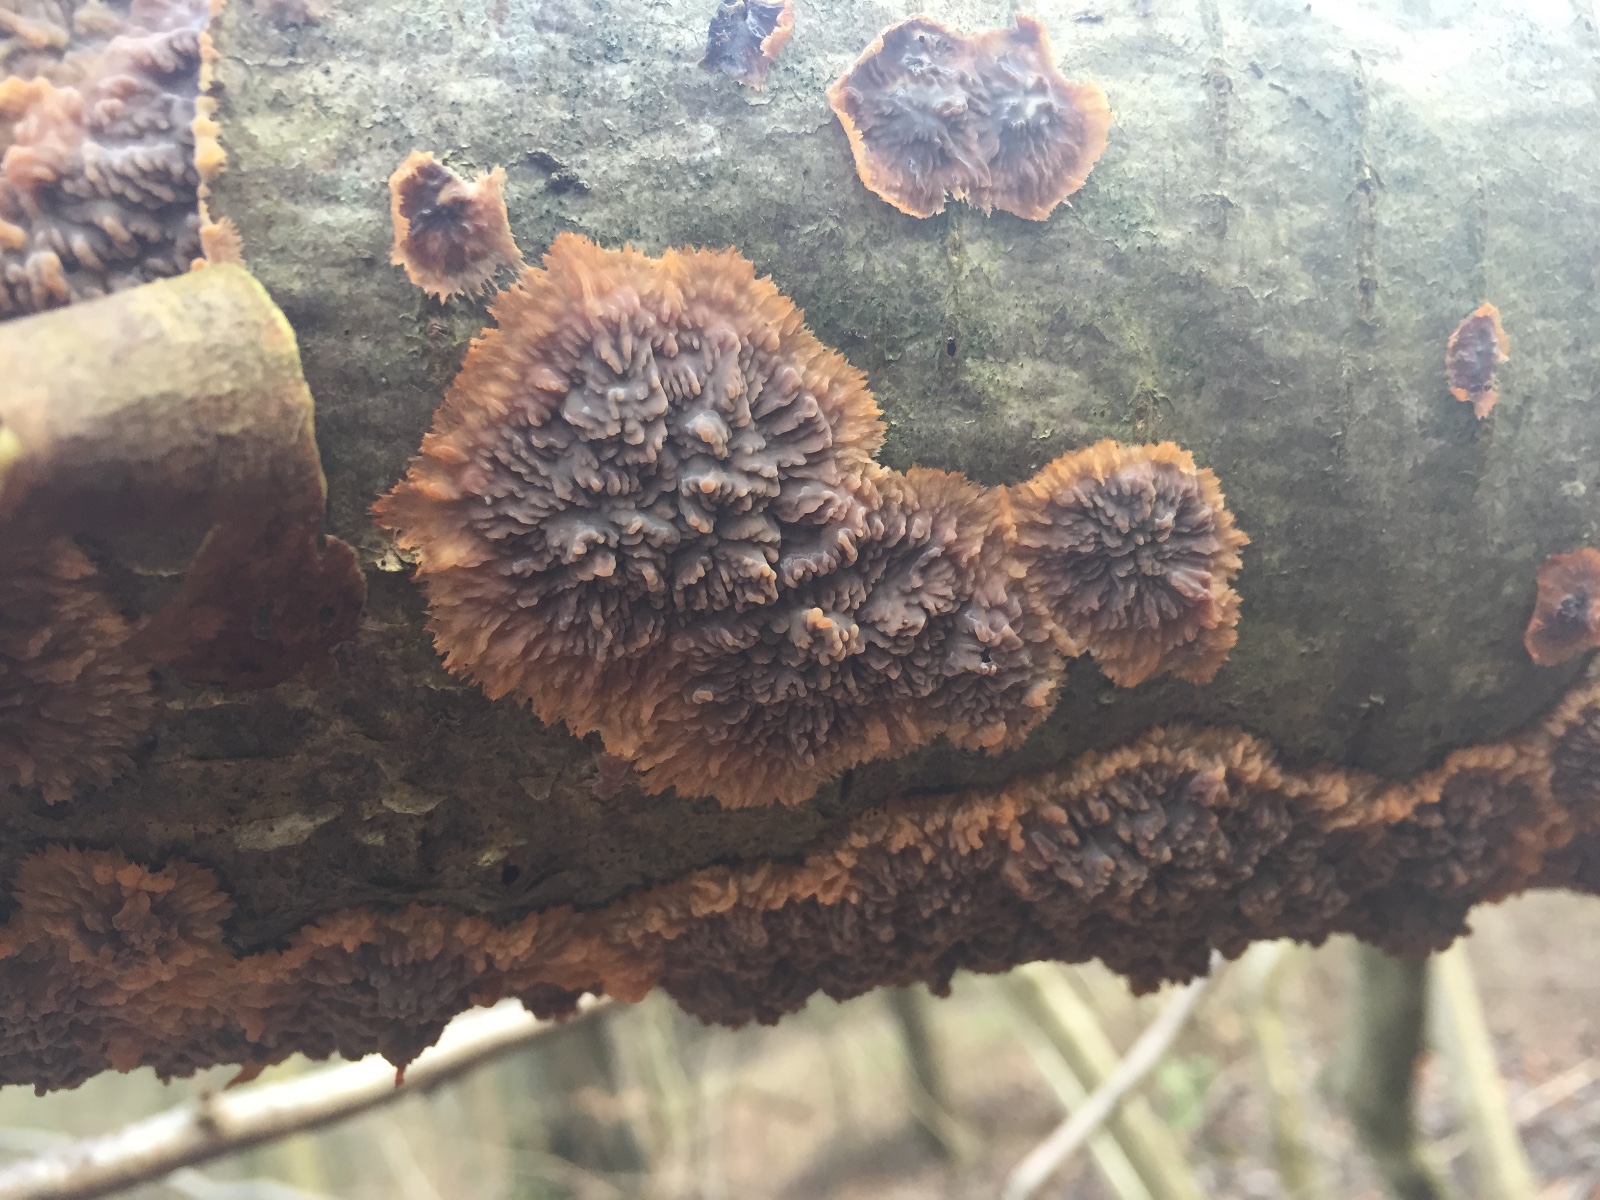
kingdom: Fungi
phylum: Basidiomycota
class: Agaricomycetes
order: Polyporales
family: Meruliaceae
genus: Phlebia
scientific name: Phlebia radiata
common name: stråle-åresvamp
